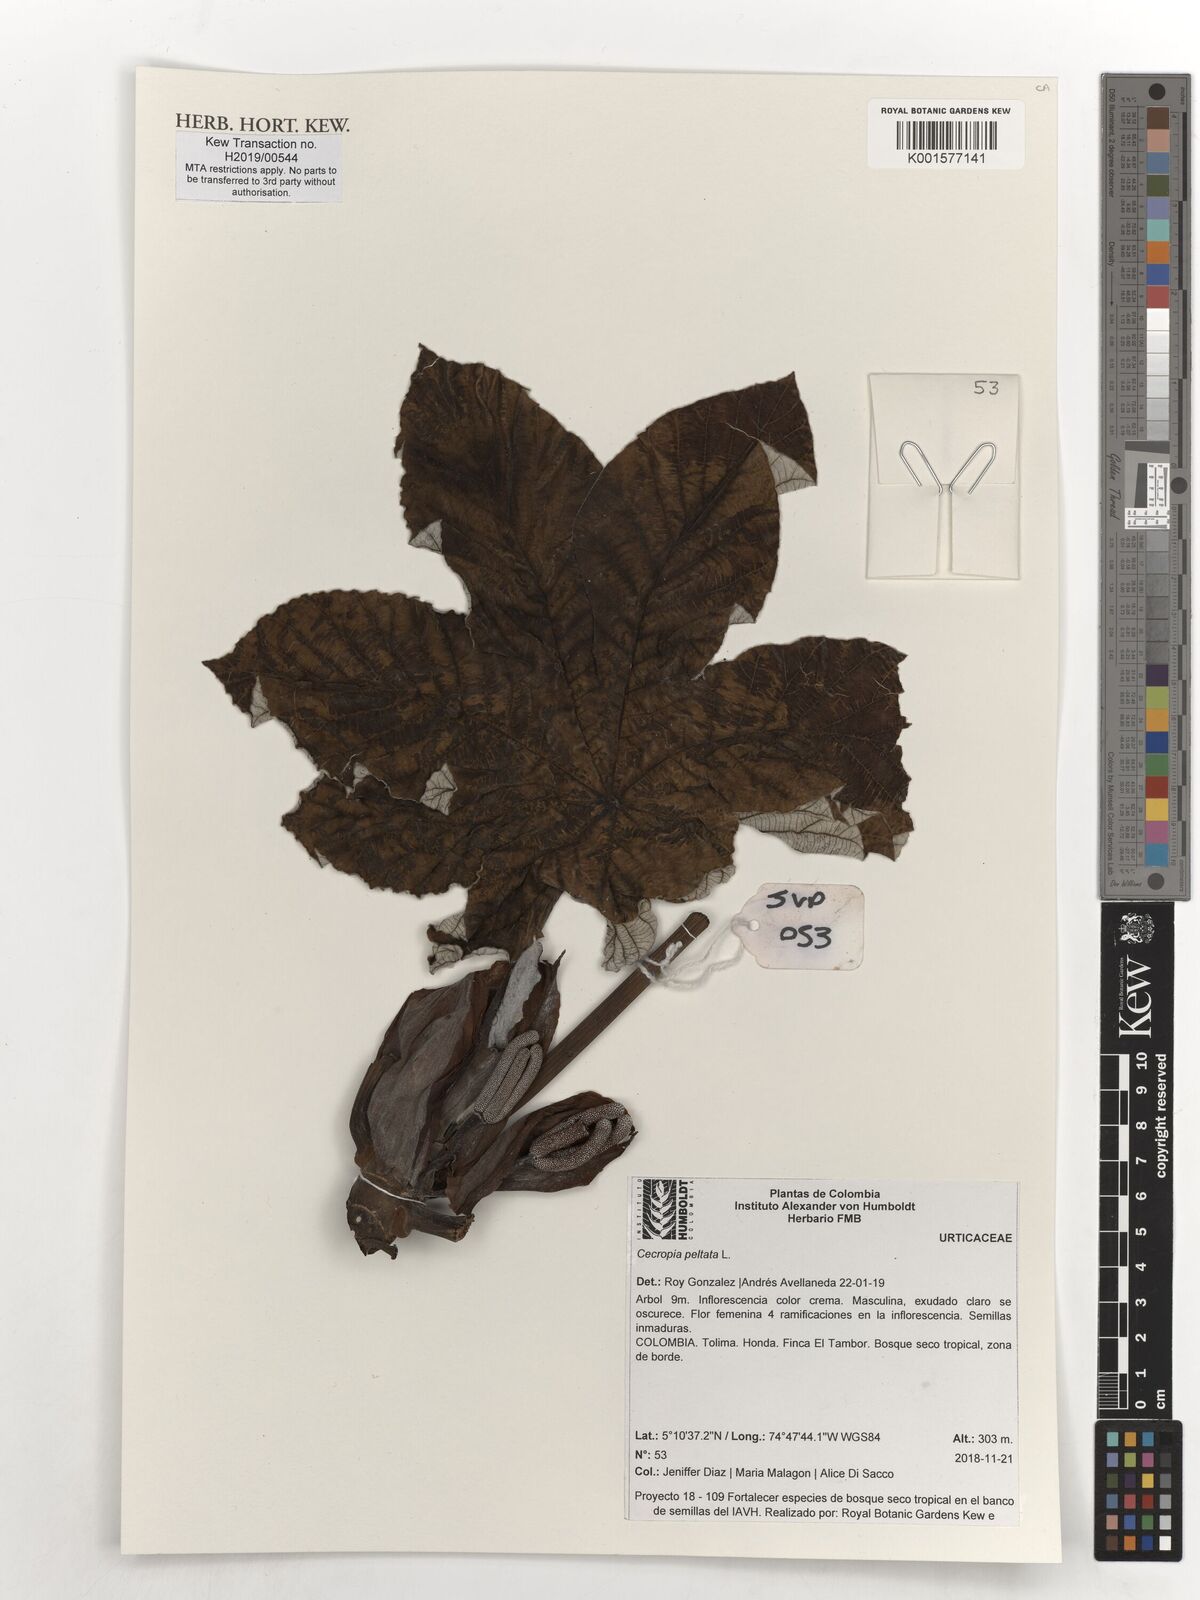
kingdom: Plantae
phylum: Tracheophyta
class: Magnoliopsida
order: Rosales
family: Urticaceae
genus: Cecropia
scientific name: Cecropia peltata
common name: Trumpet-tree
